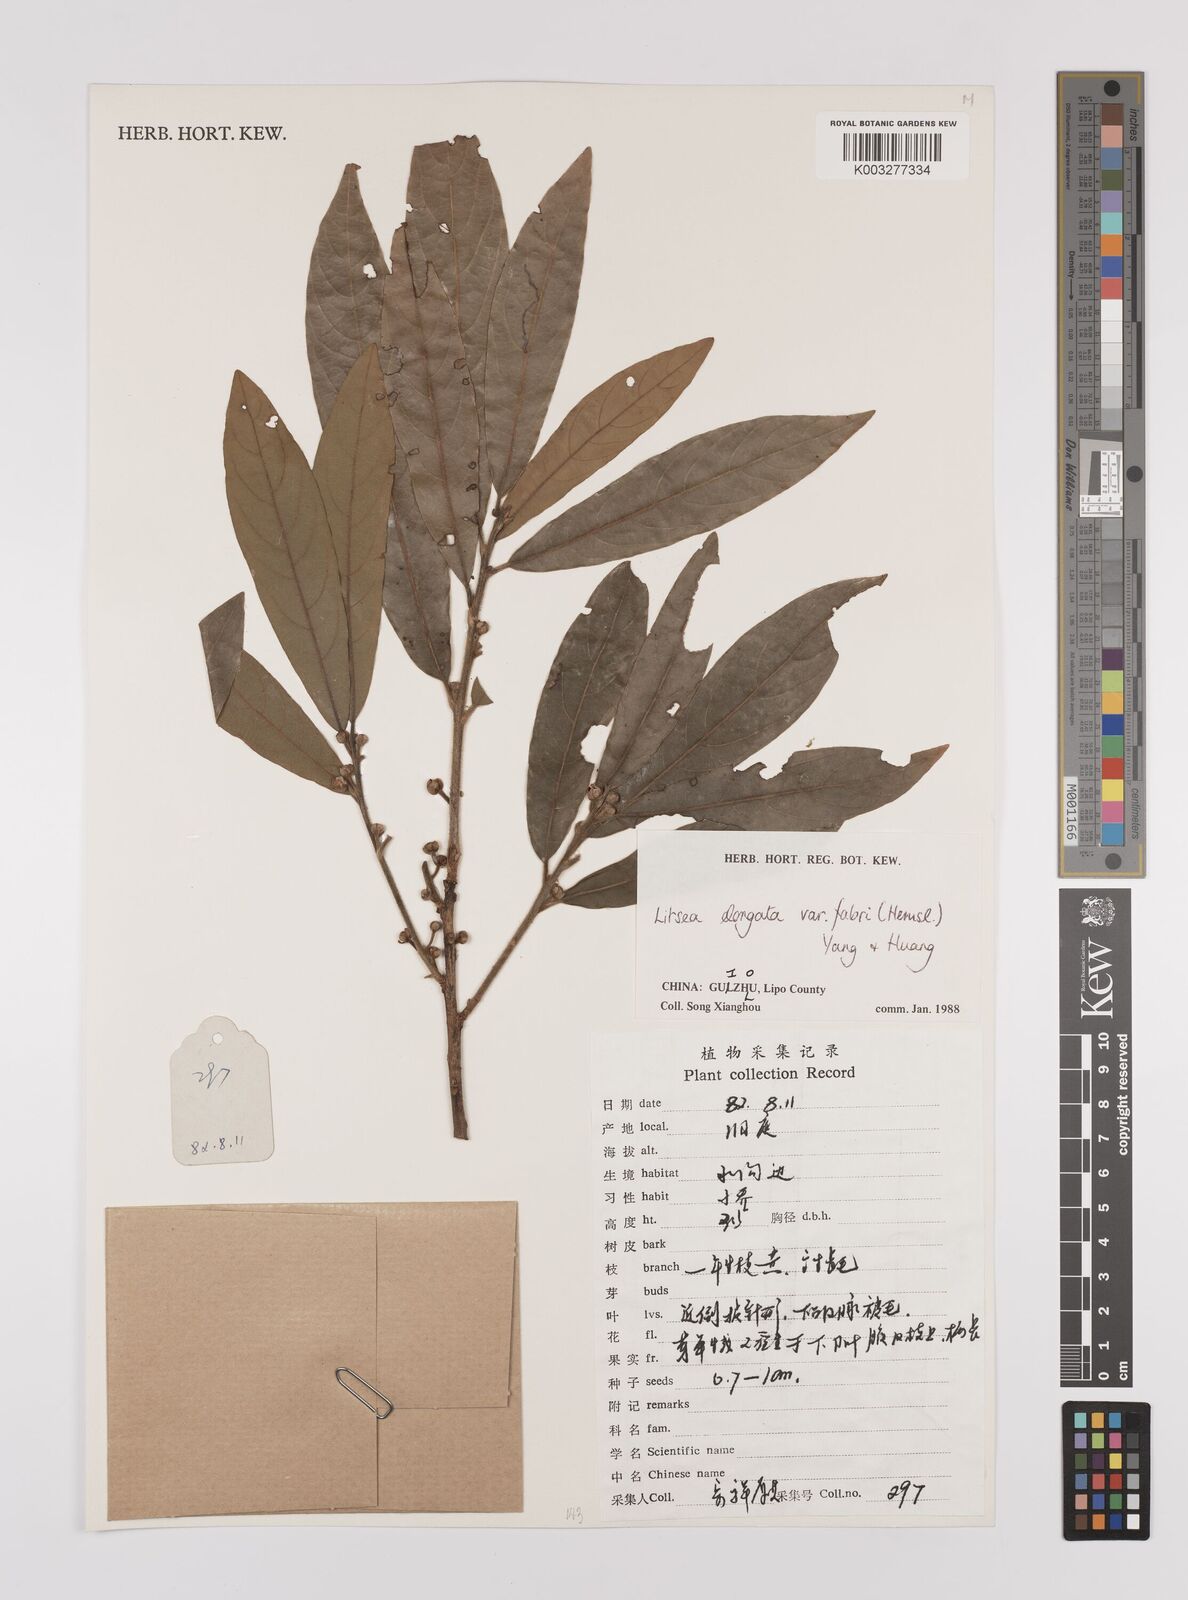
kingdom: Plantae
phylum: Tracheophyta
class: Magnoliopsida
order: Laurales
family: Lauraceae
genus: Litsea
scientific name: Litsea elongata
